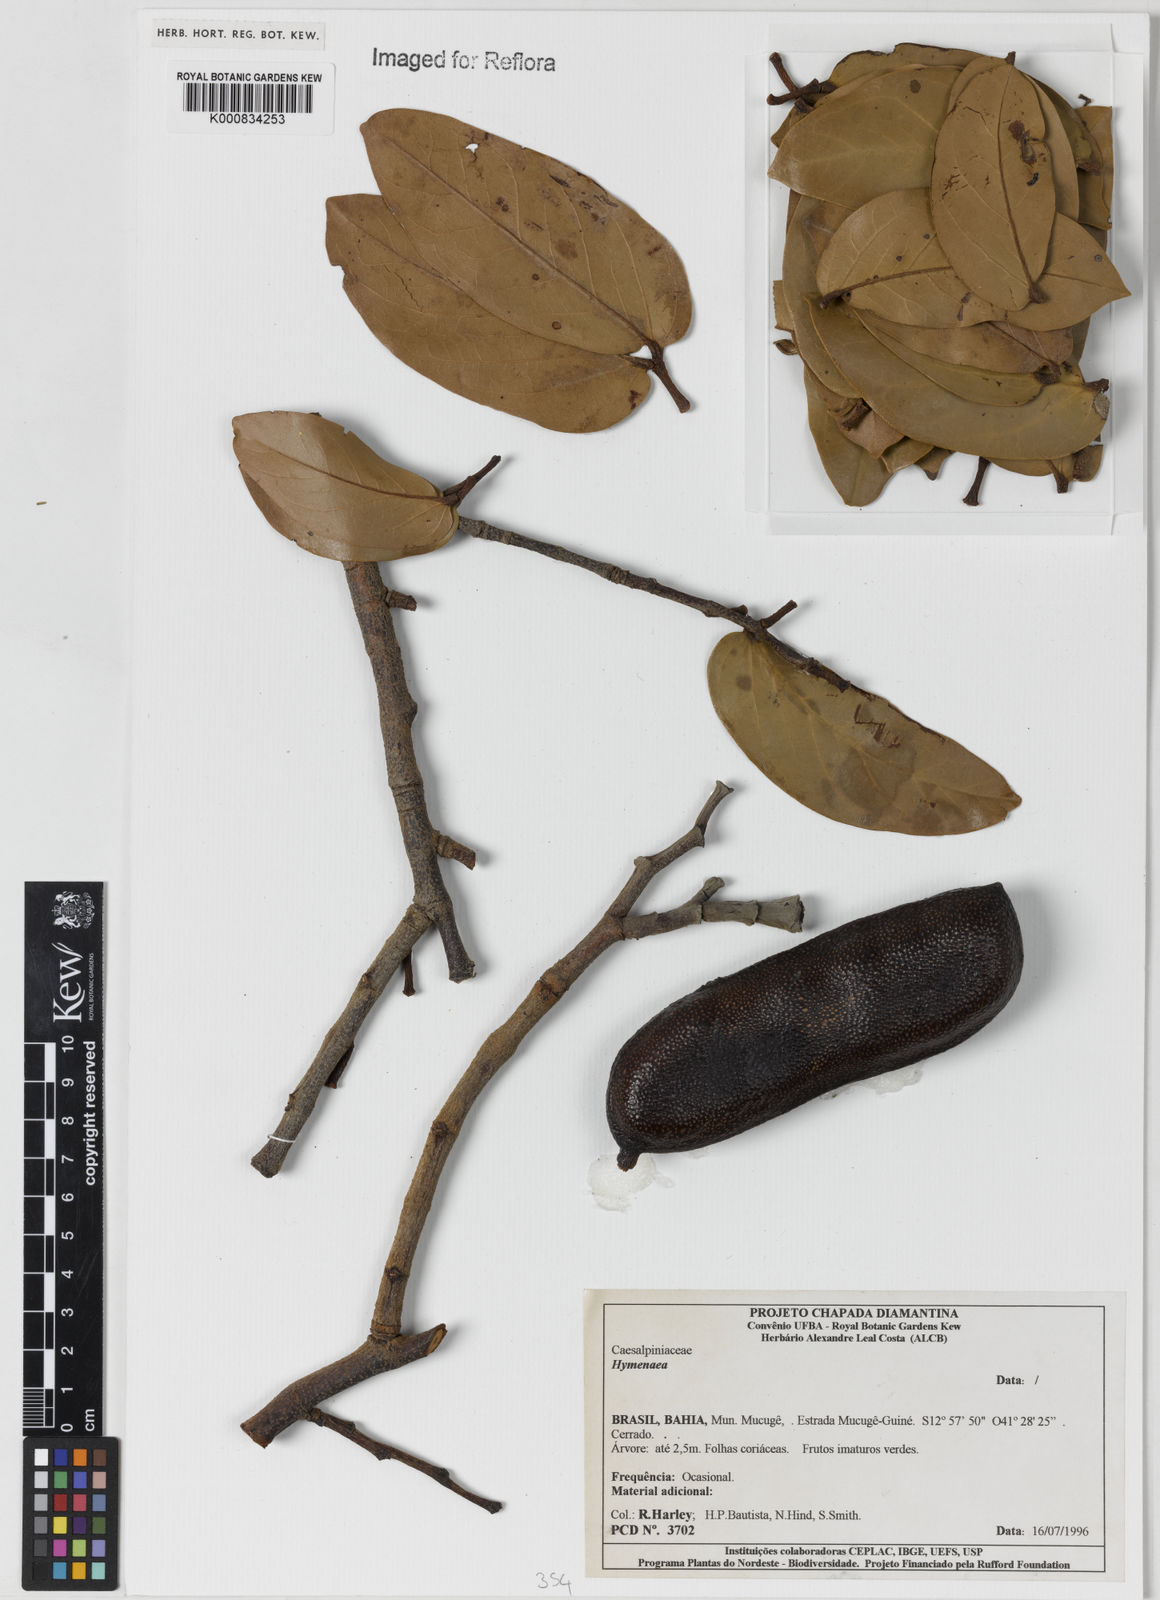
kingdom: Plantae
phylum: Tracheophyta
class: Magnoliopsida
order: Fabales
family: Fabaceae
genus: Hymenaea
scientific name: Hymenaea
